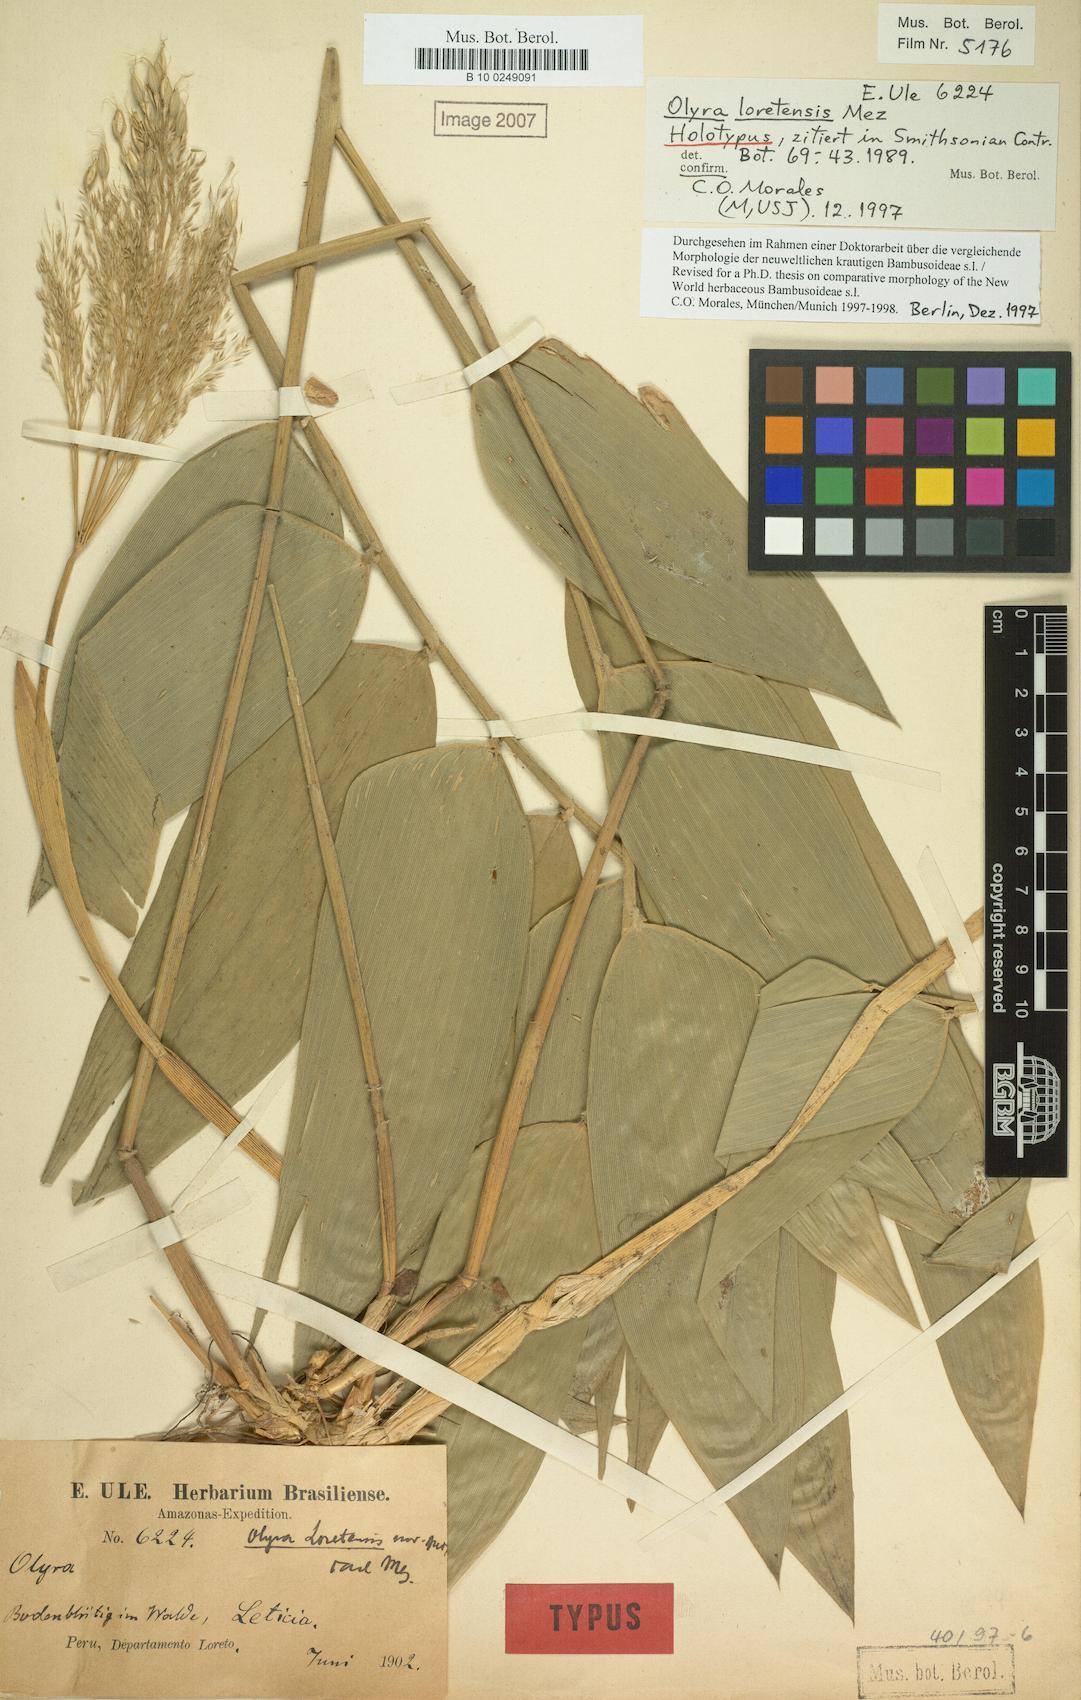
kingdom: Plantae
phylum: Tracheophyta
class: Liliopsida
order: Poales
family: Poaceae
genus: Olyra
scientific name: Olyra loretensis
